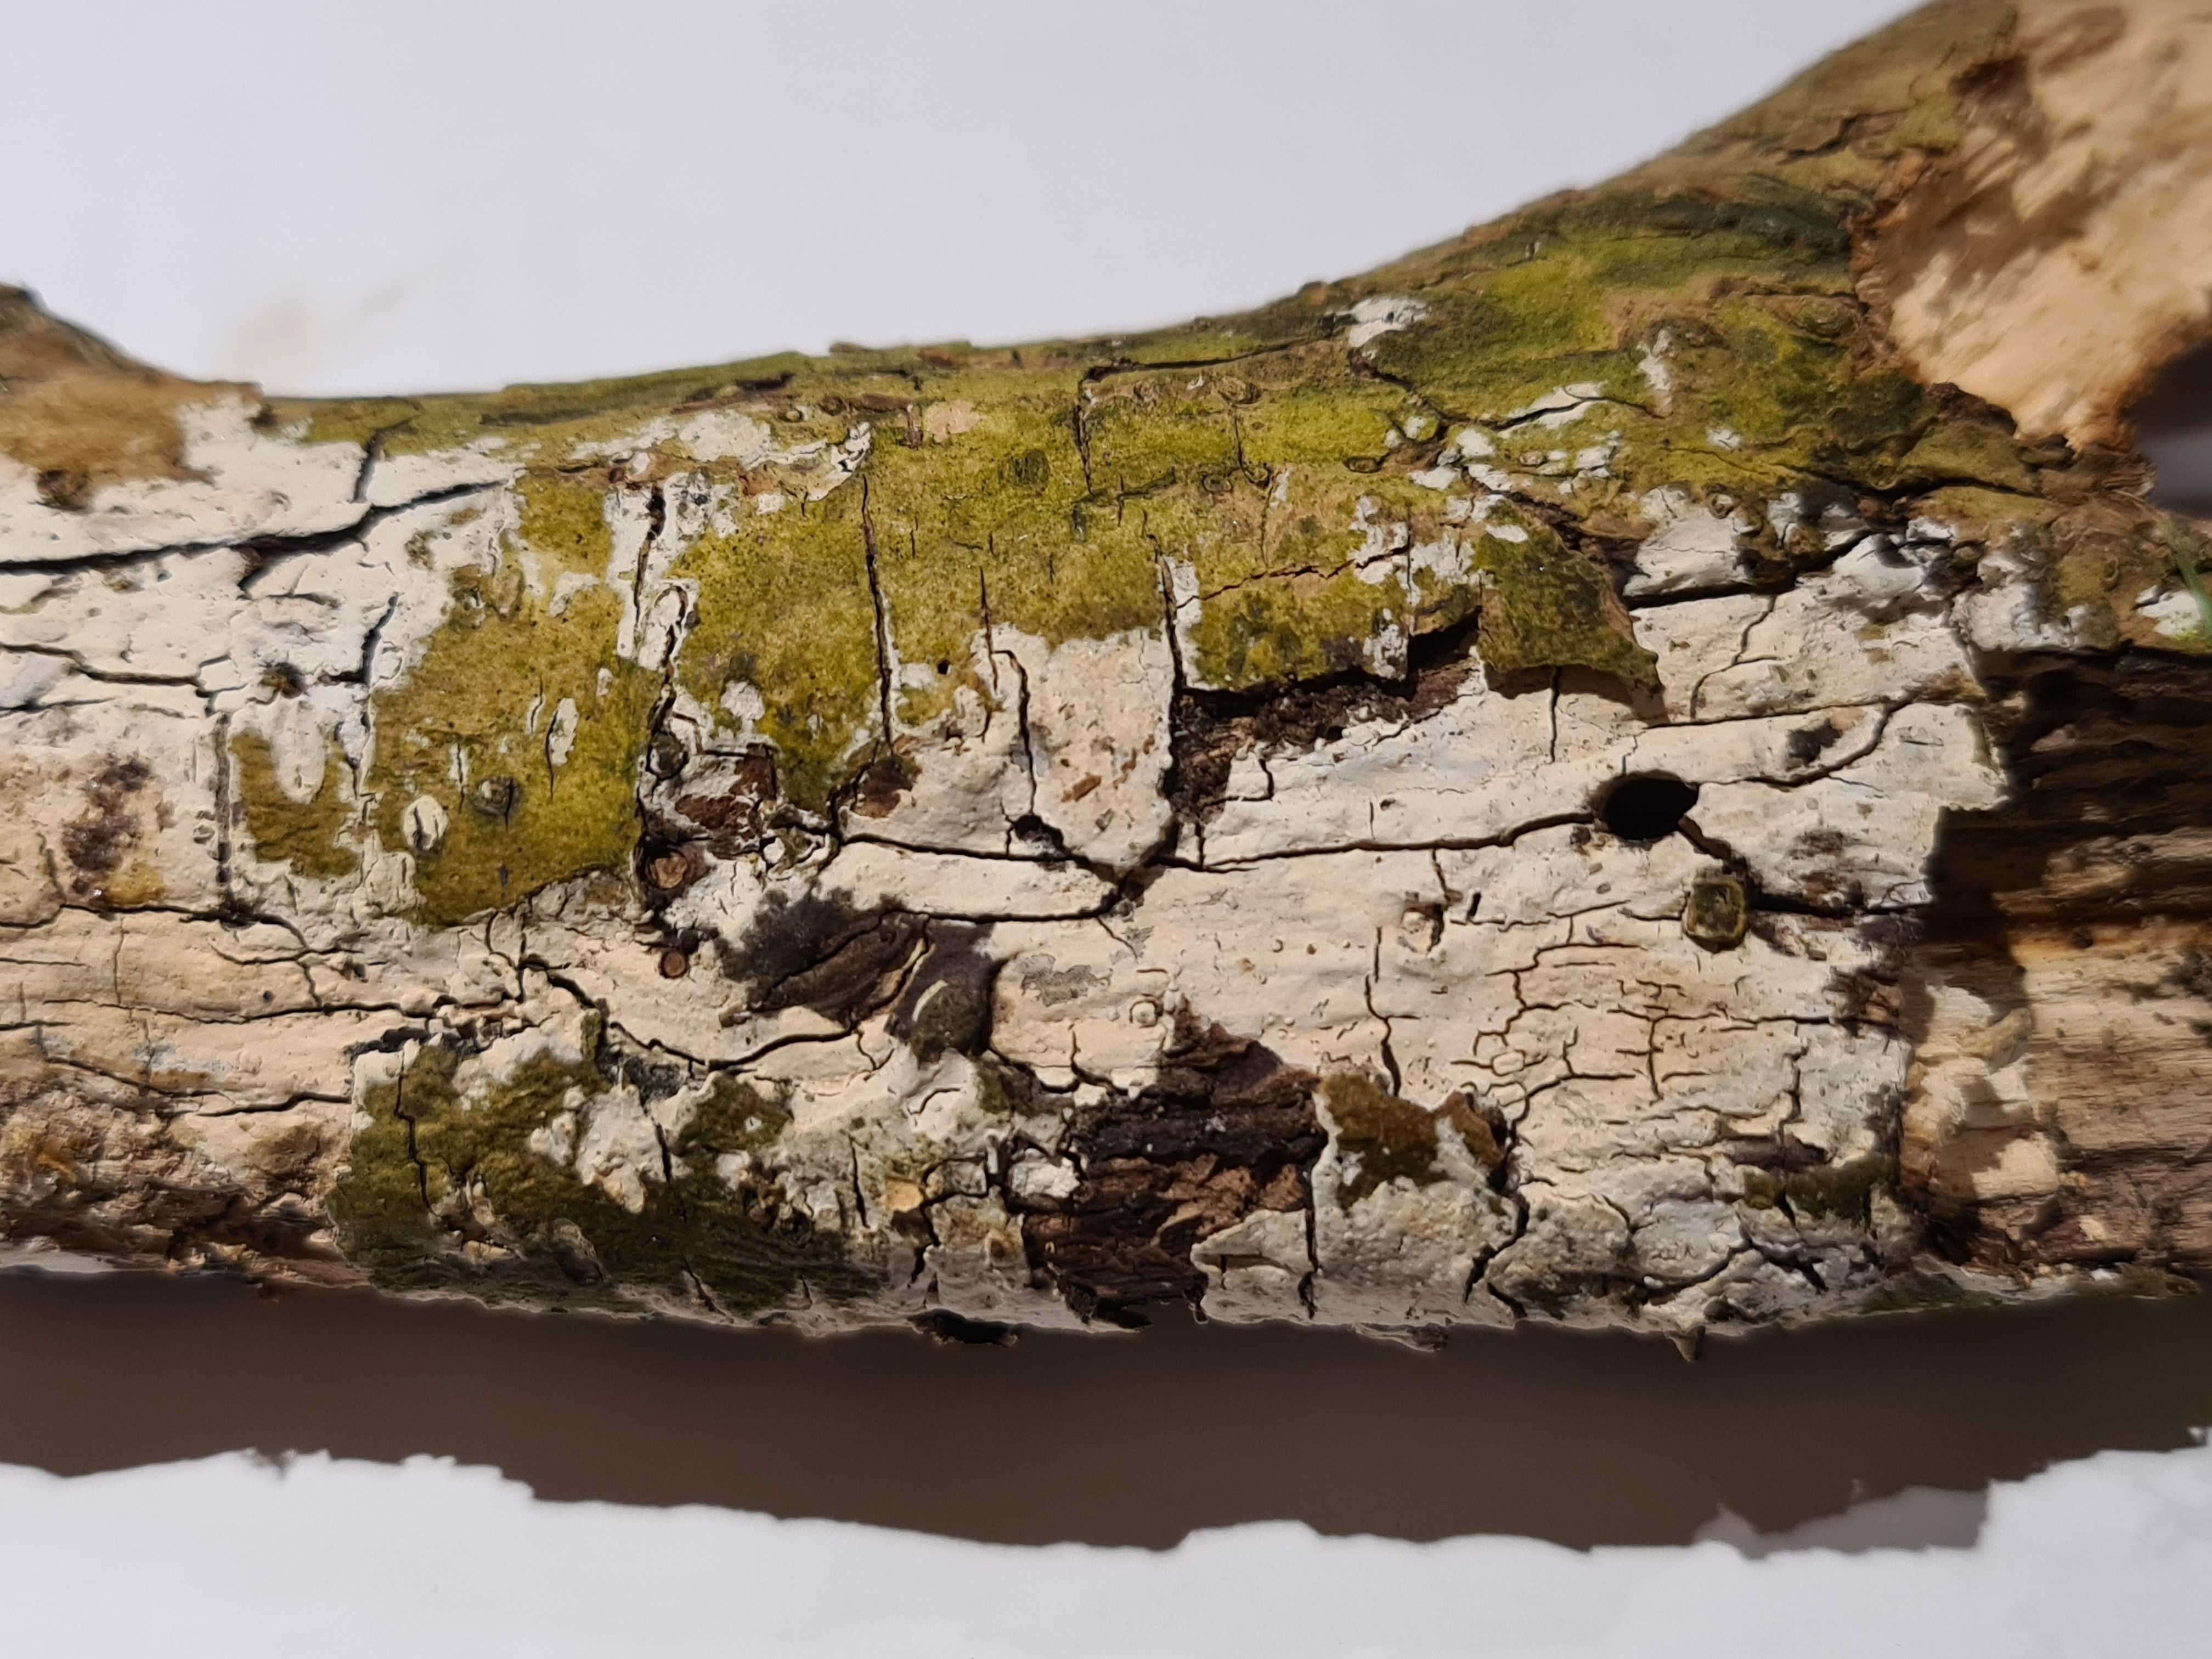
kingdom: Fungi
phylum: Basidiomycota
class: Agaricomycetes
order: Corticiales
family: Corticiaceae
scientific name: Corticiaceae
